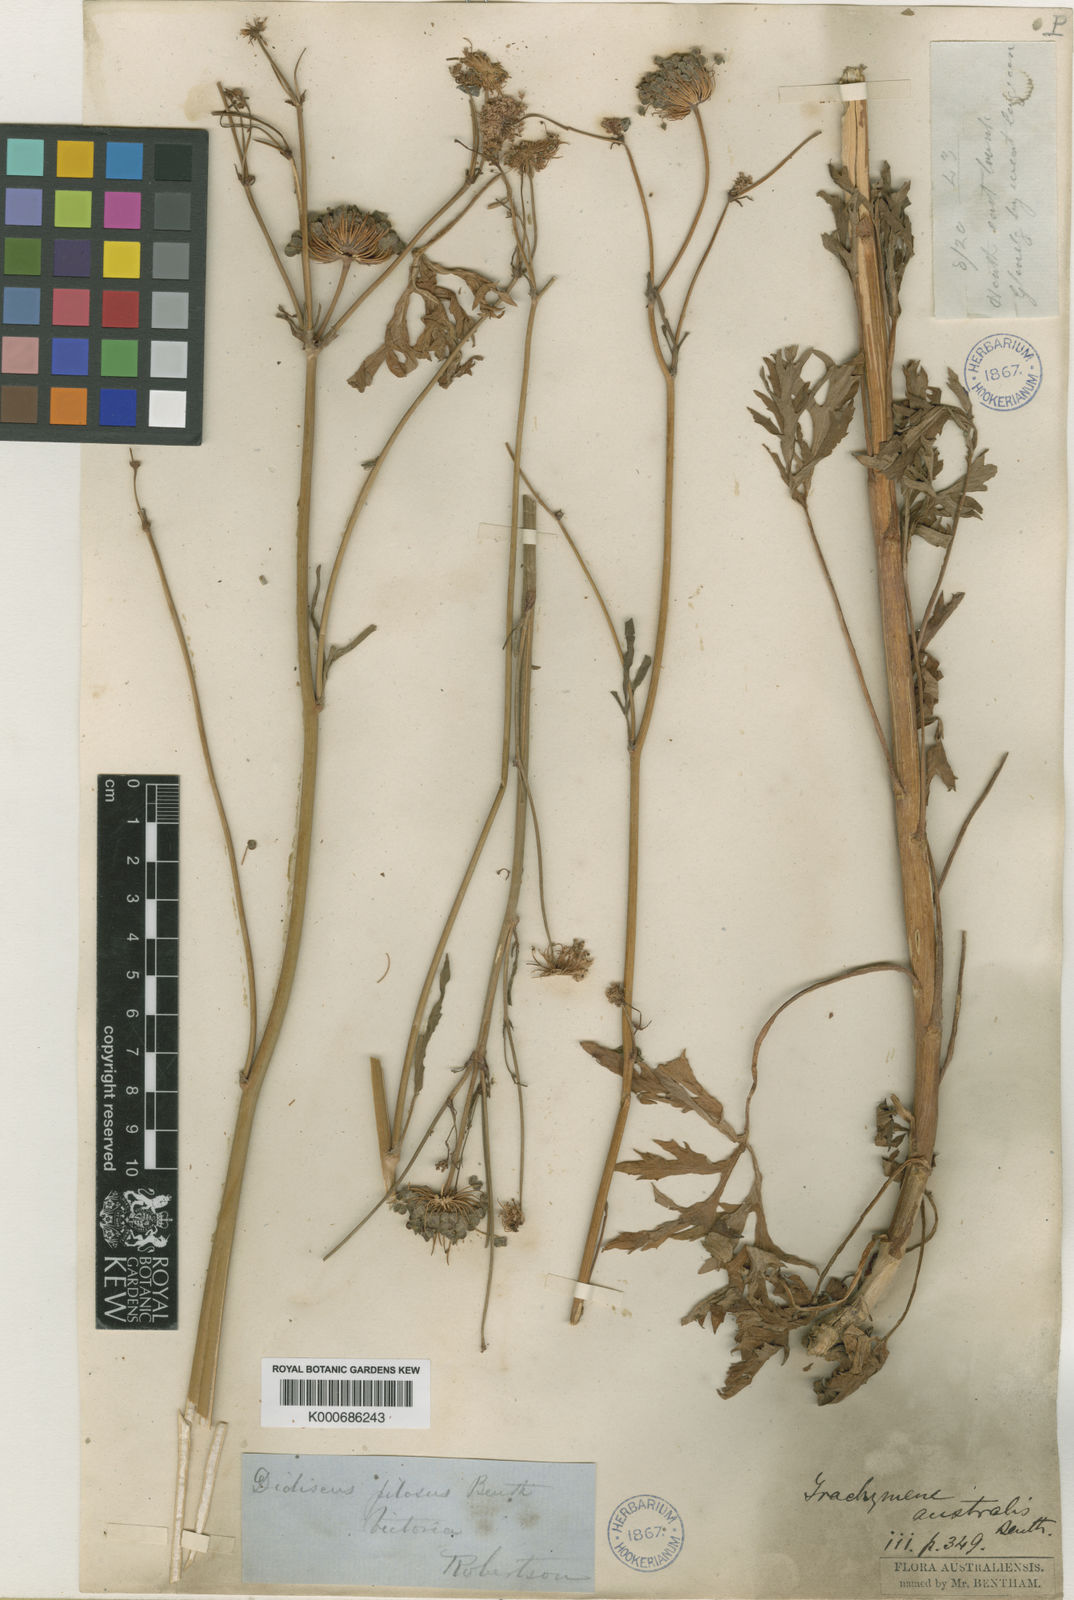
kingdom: Plantae
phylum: Tracheophyta
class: Magnoliopsida
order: Apiales
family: Araliaceae
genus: Trachymene
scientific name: Trachymene composita
